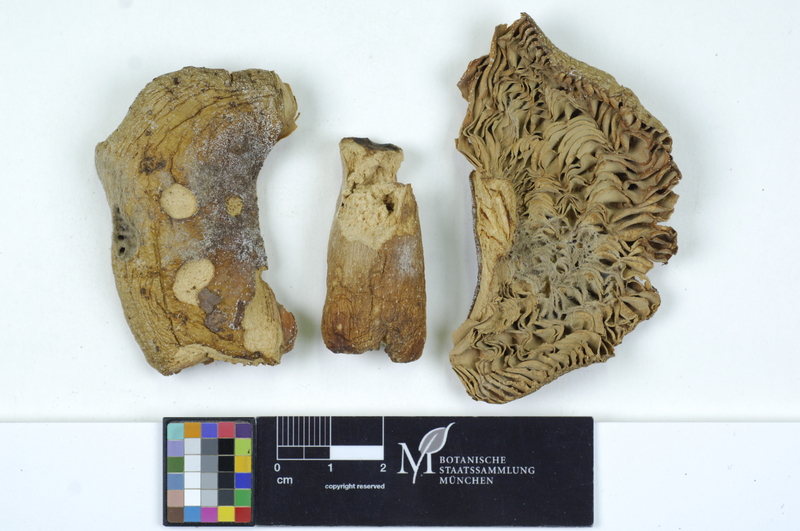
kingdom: Fungi
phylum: Basidiomycota
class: Agaricomycetes
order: Russulales
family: Russulaceae
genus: Russula
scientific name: Russula romellii
